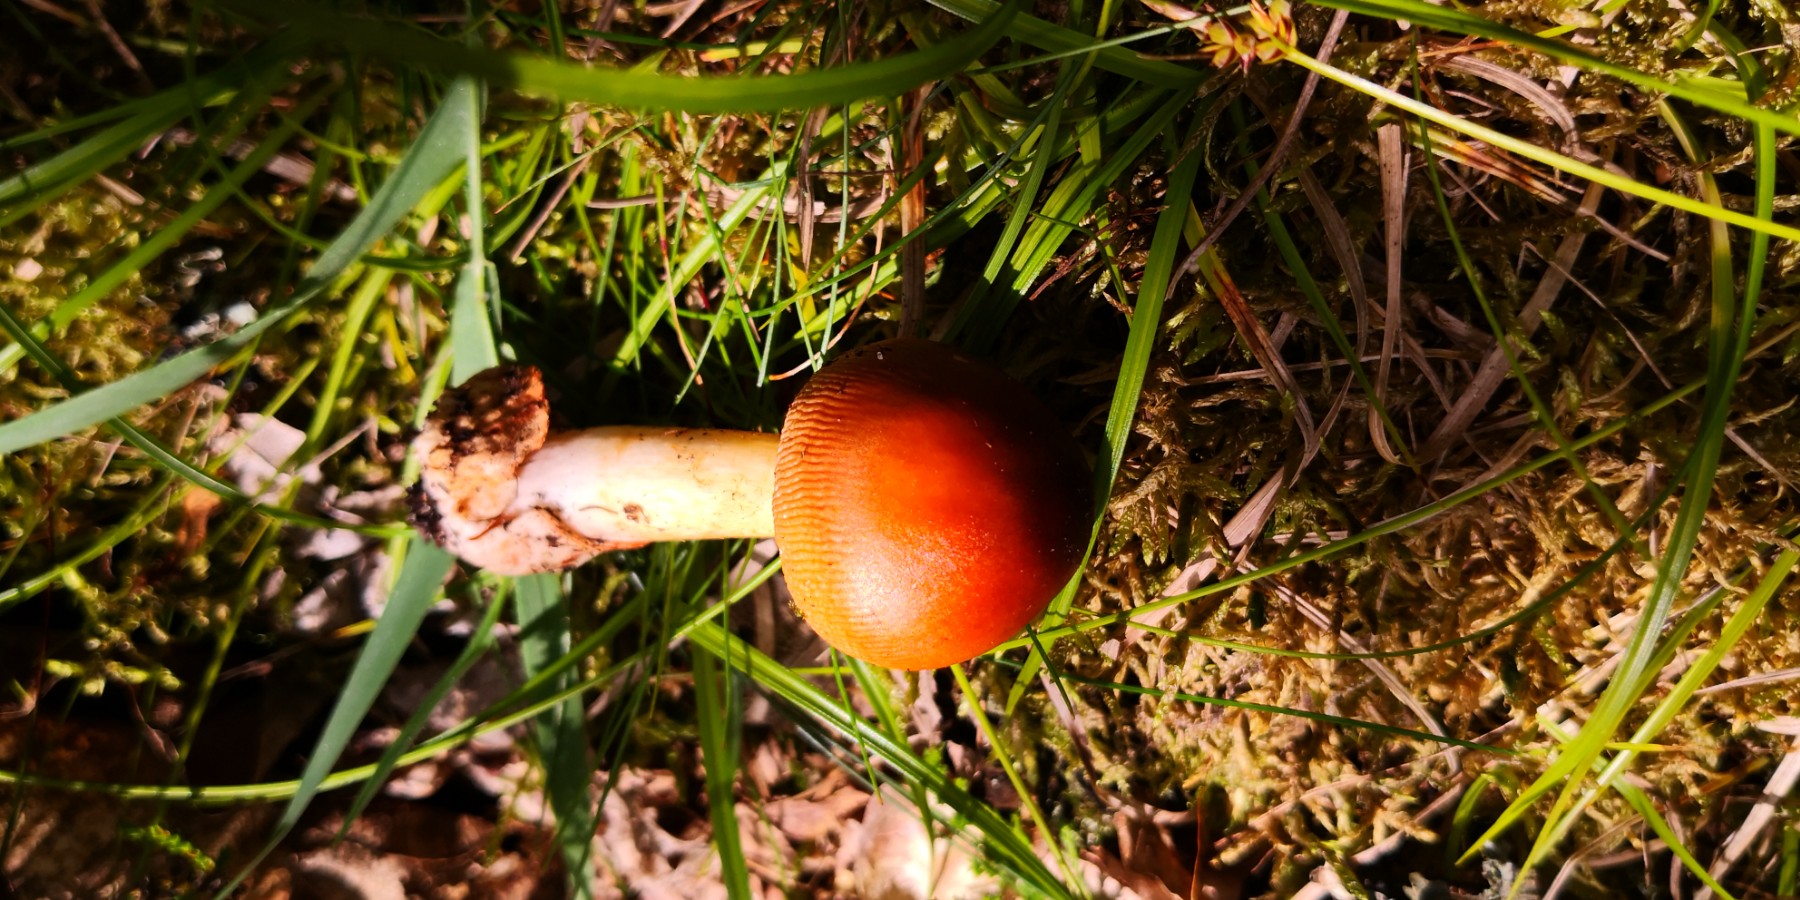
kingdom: Fungi
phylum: Basidiomycota
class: Agaricomycetes
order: Agaricales
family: Amanitaceae
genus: Amanita
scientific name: Amanita fulva
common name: brun kam-fluesvamp
